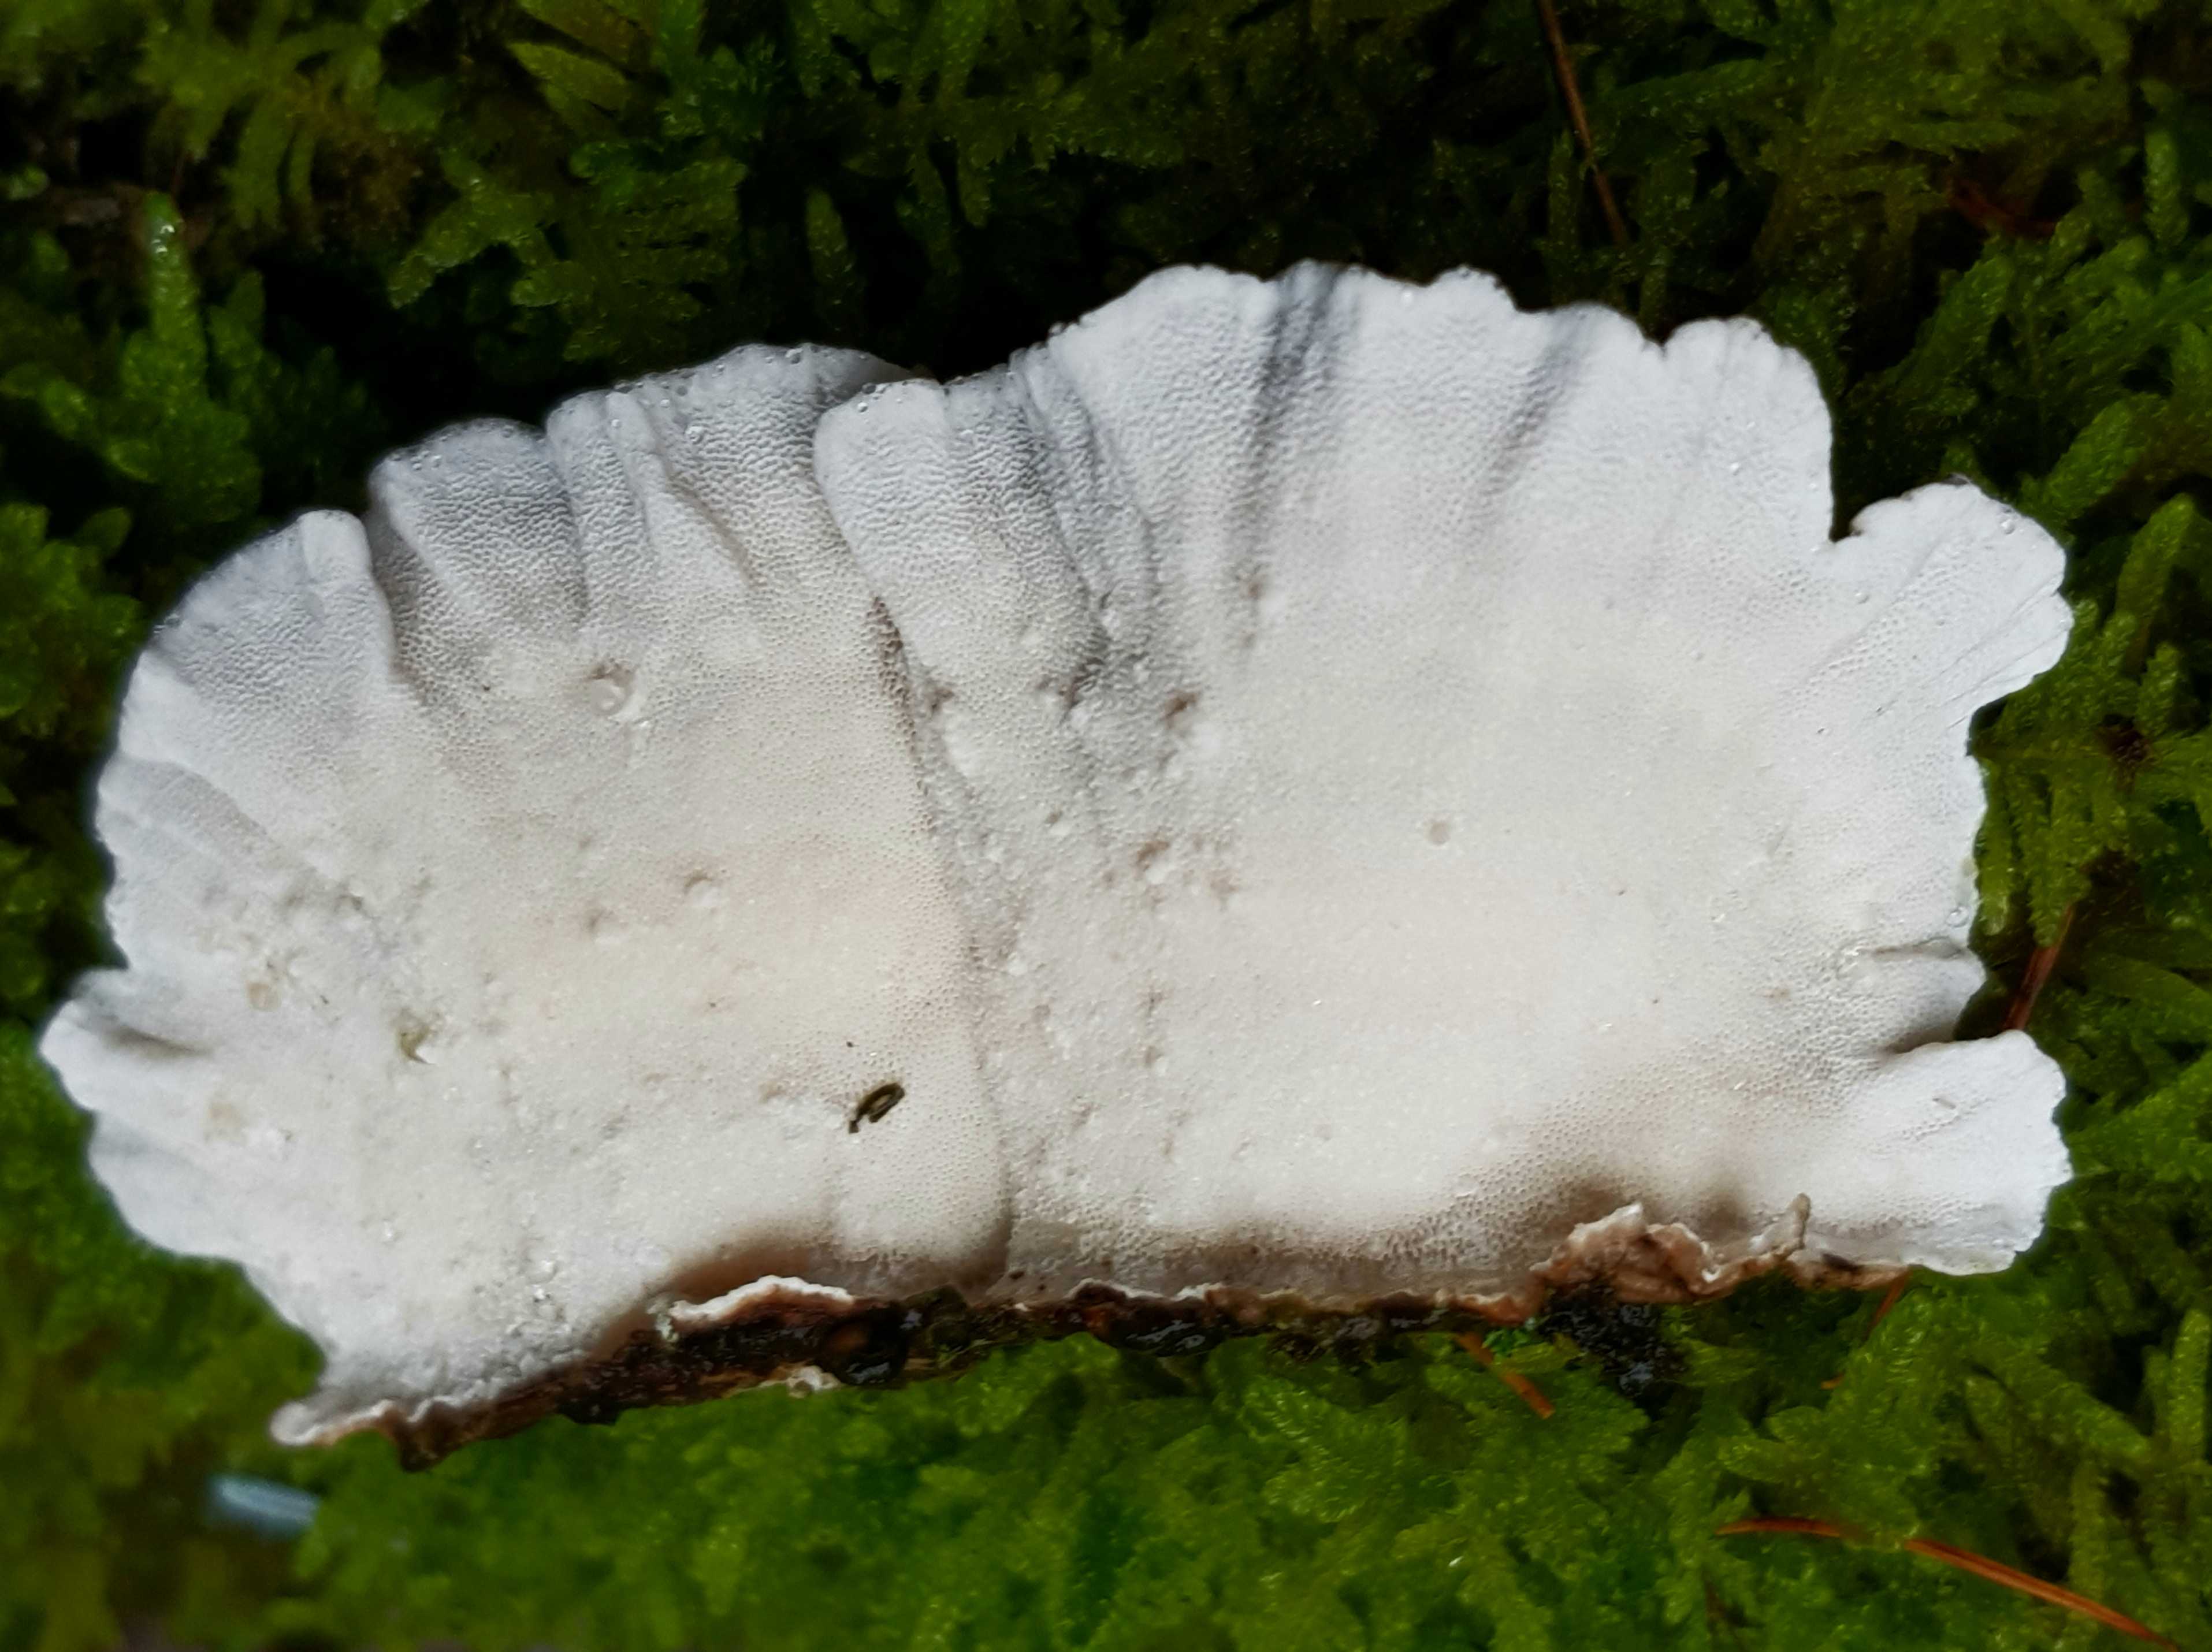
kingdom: Fungi
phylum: Basidiomycota
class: Agaricomycetes
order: Polyporales
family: Polyporaceae
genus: Trametes
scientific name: Trametes versicolor
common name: broget læderporesvamp
